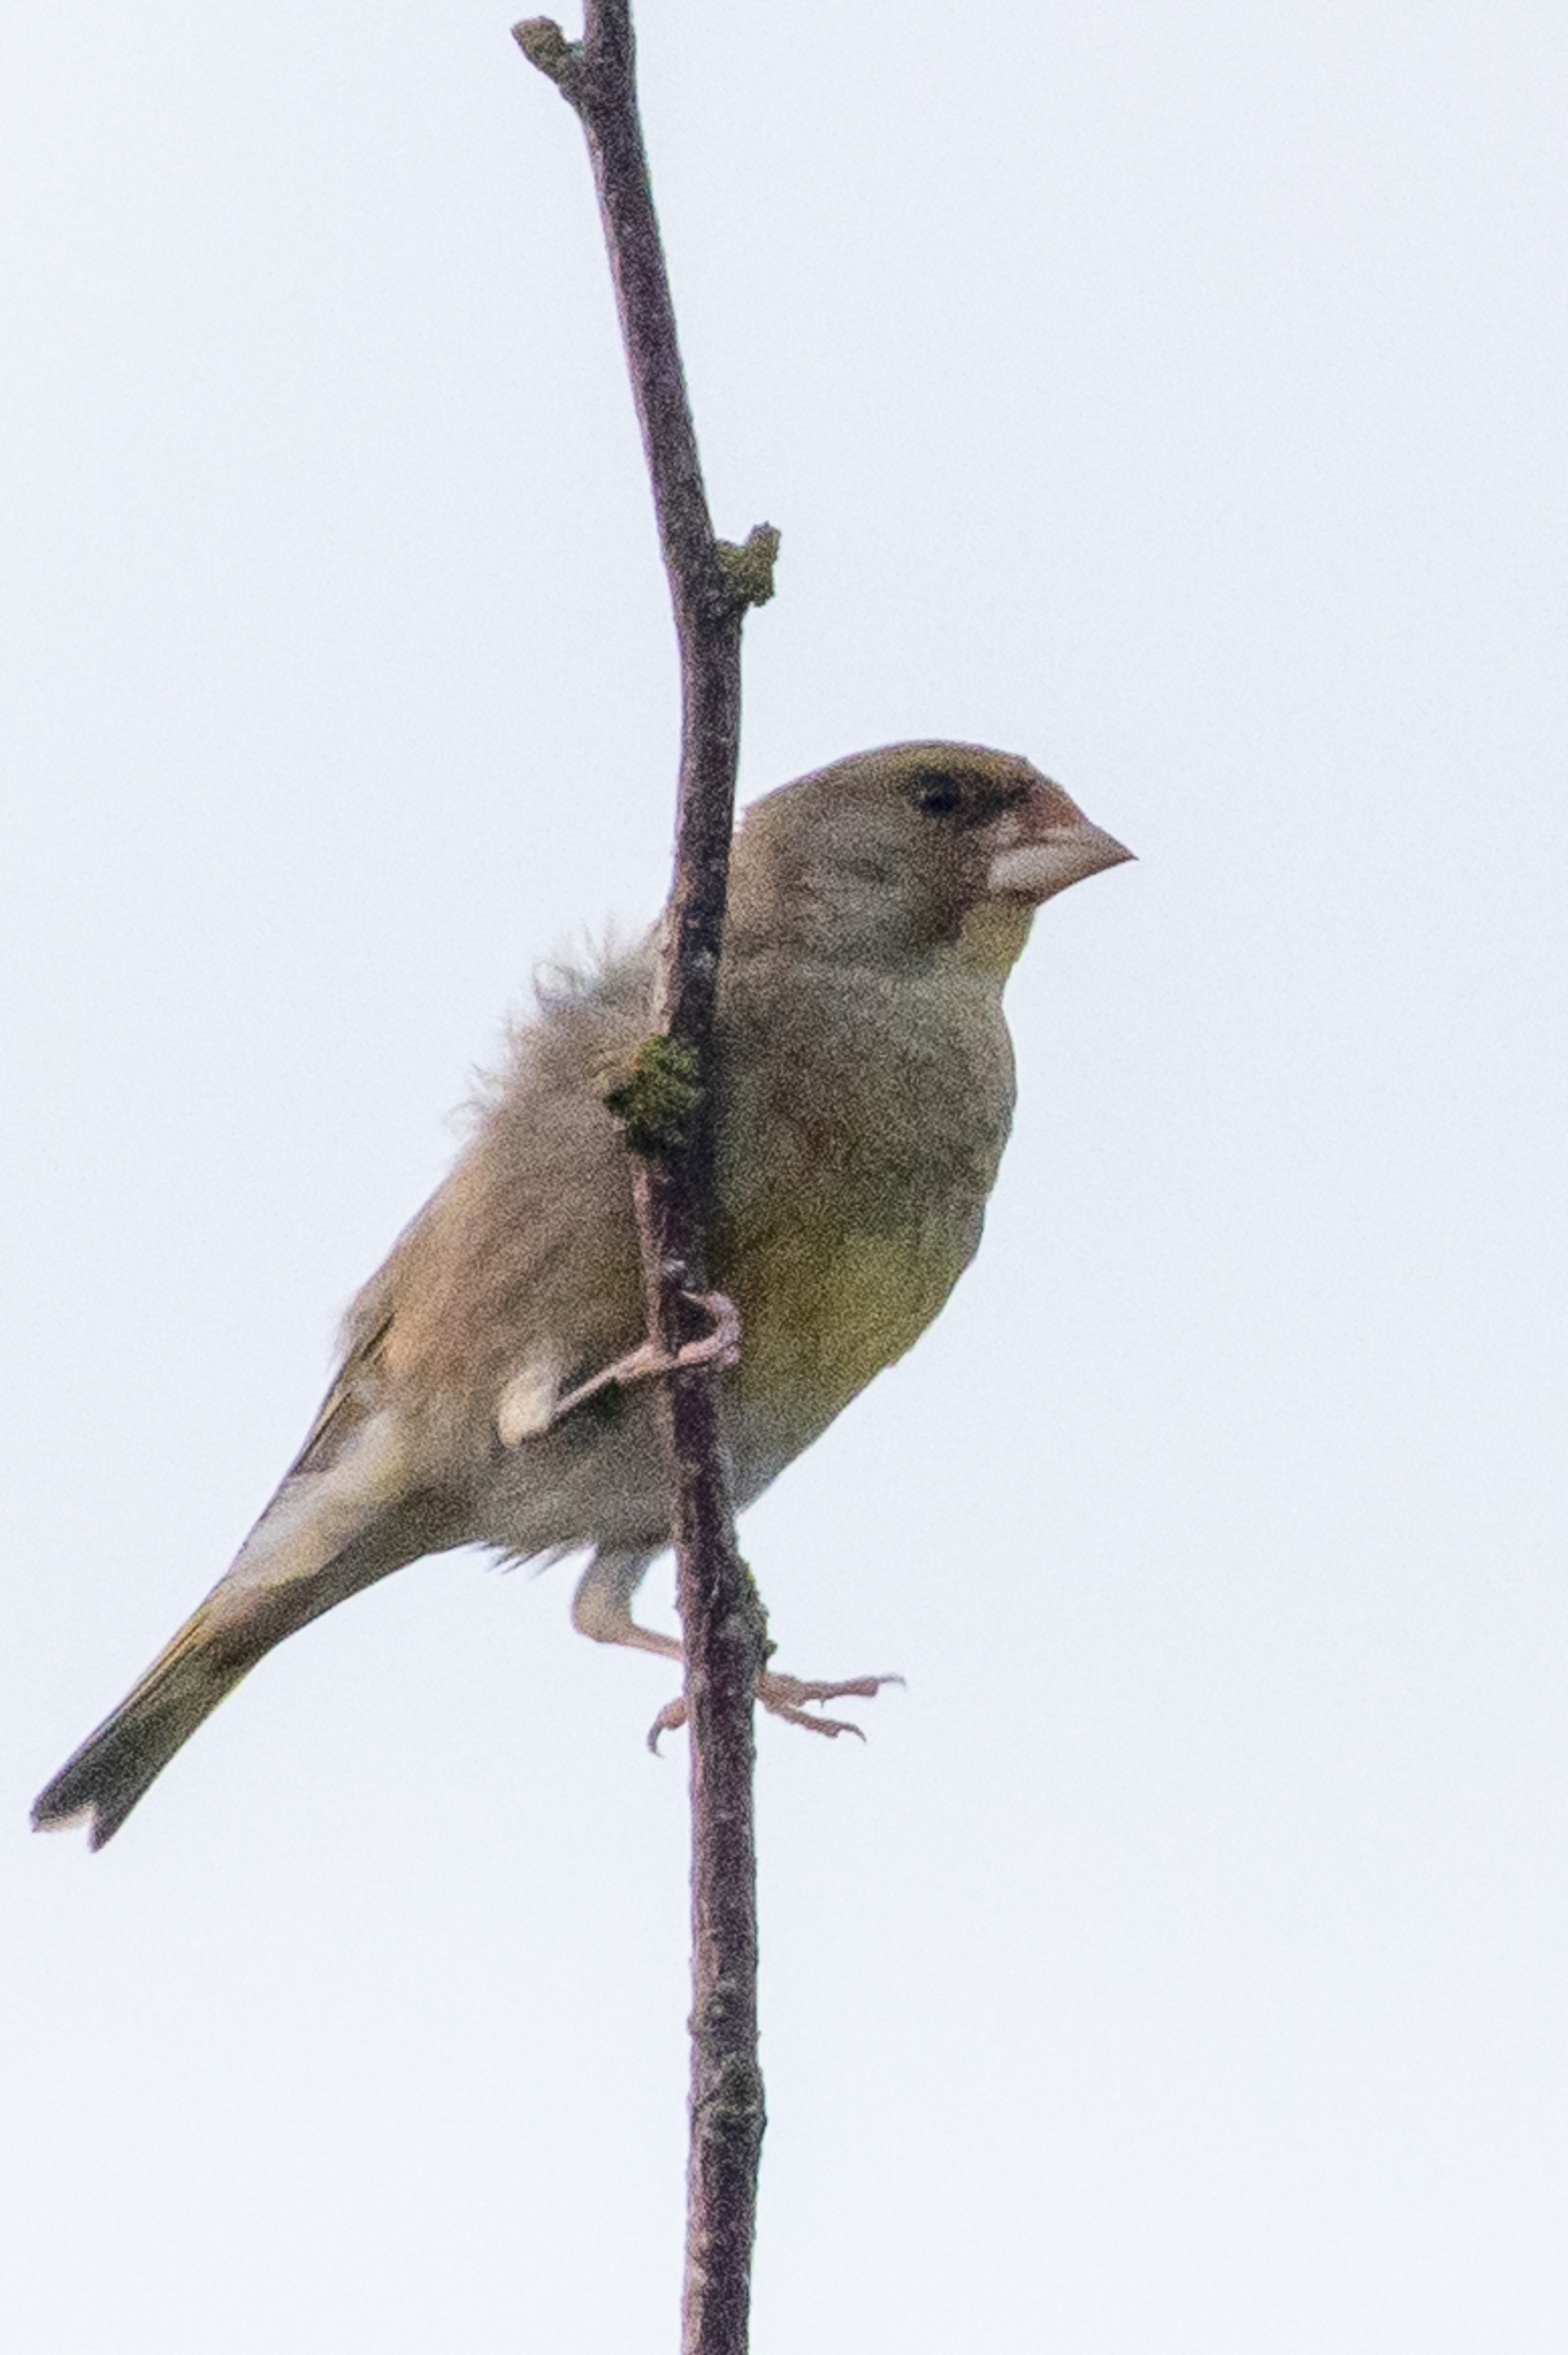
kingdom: Plantae
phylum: Tracheophyta
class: Liliopsida
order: Poales
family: Poaceae
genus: Chloris
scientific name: Chloris chloris
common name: Grønirisk
